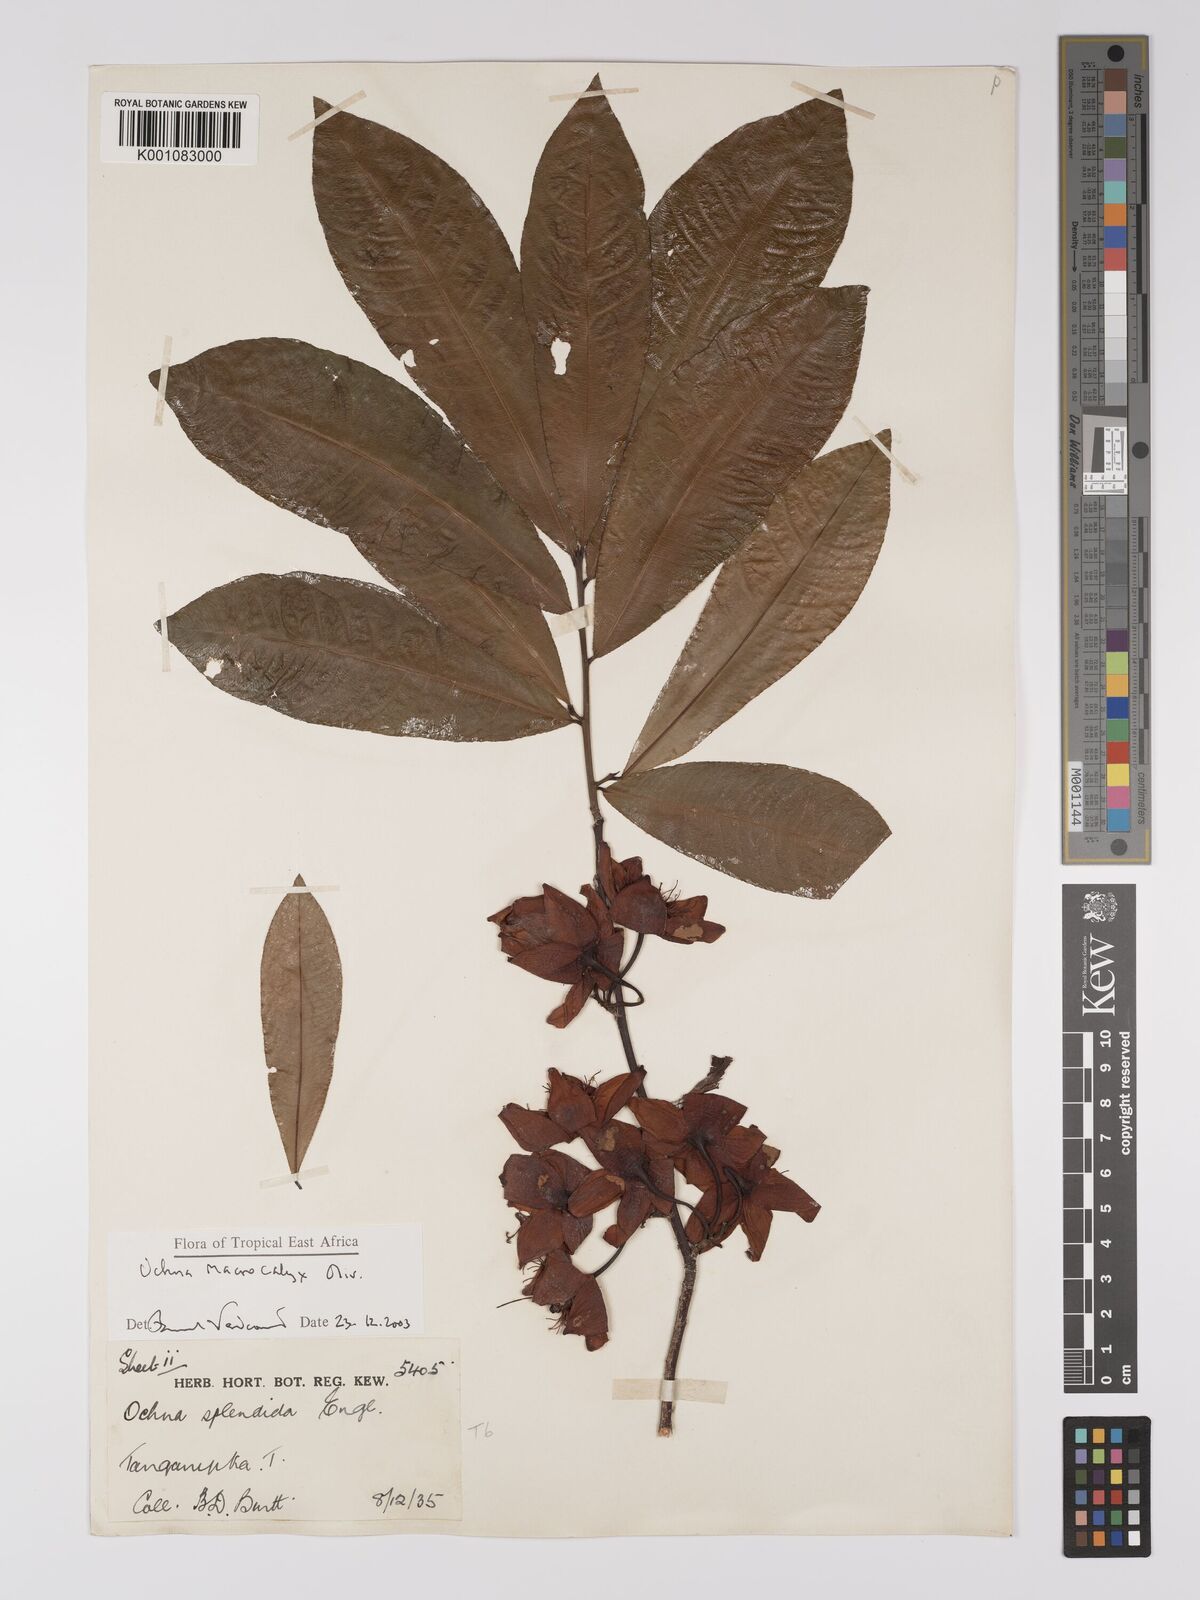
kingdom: Plantae
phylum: Tracheophyta
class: Magnoliopsida
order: Malpighiales
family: Ochnaceae
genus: Ochna
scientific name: Ochna macrocalyx
